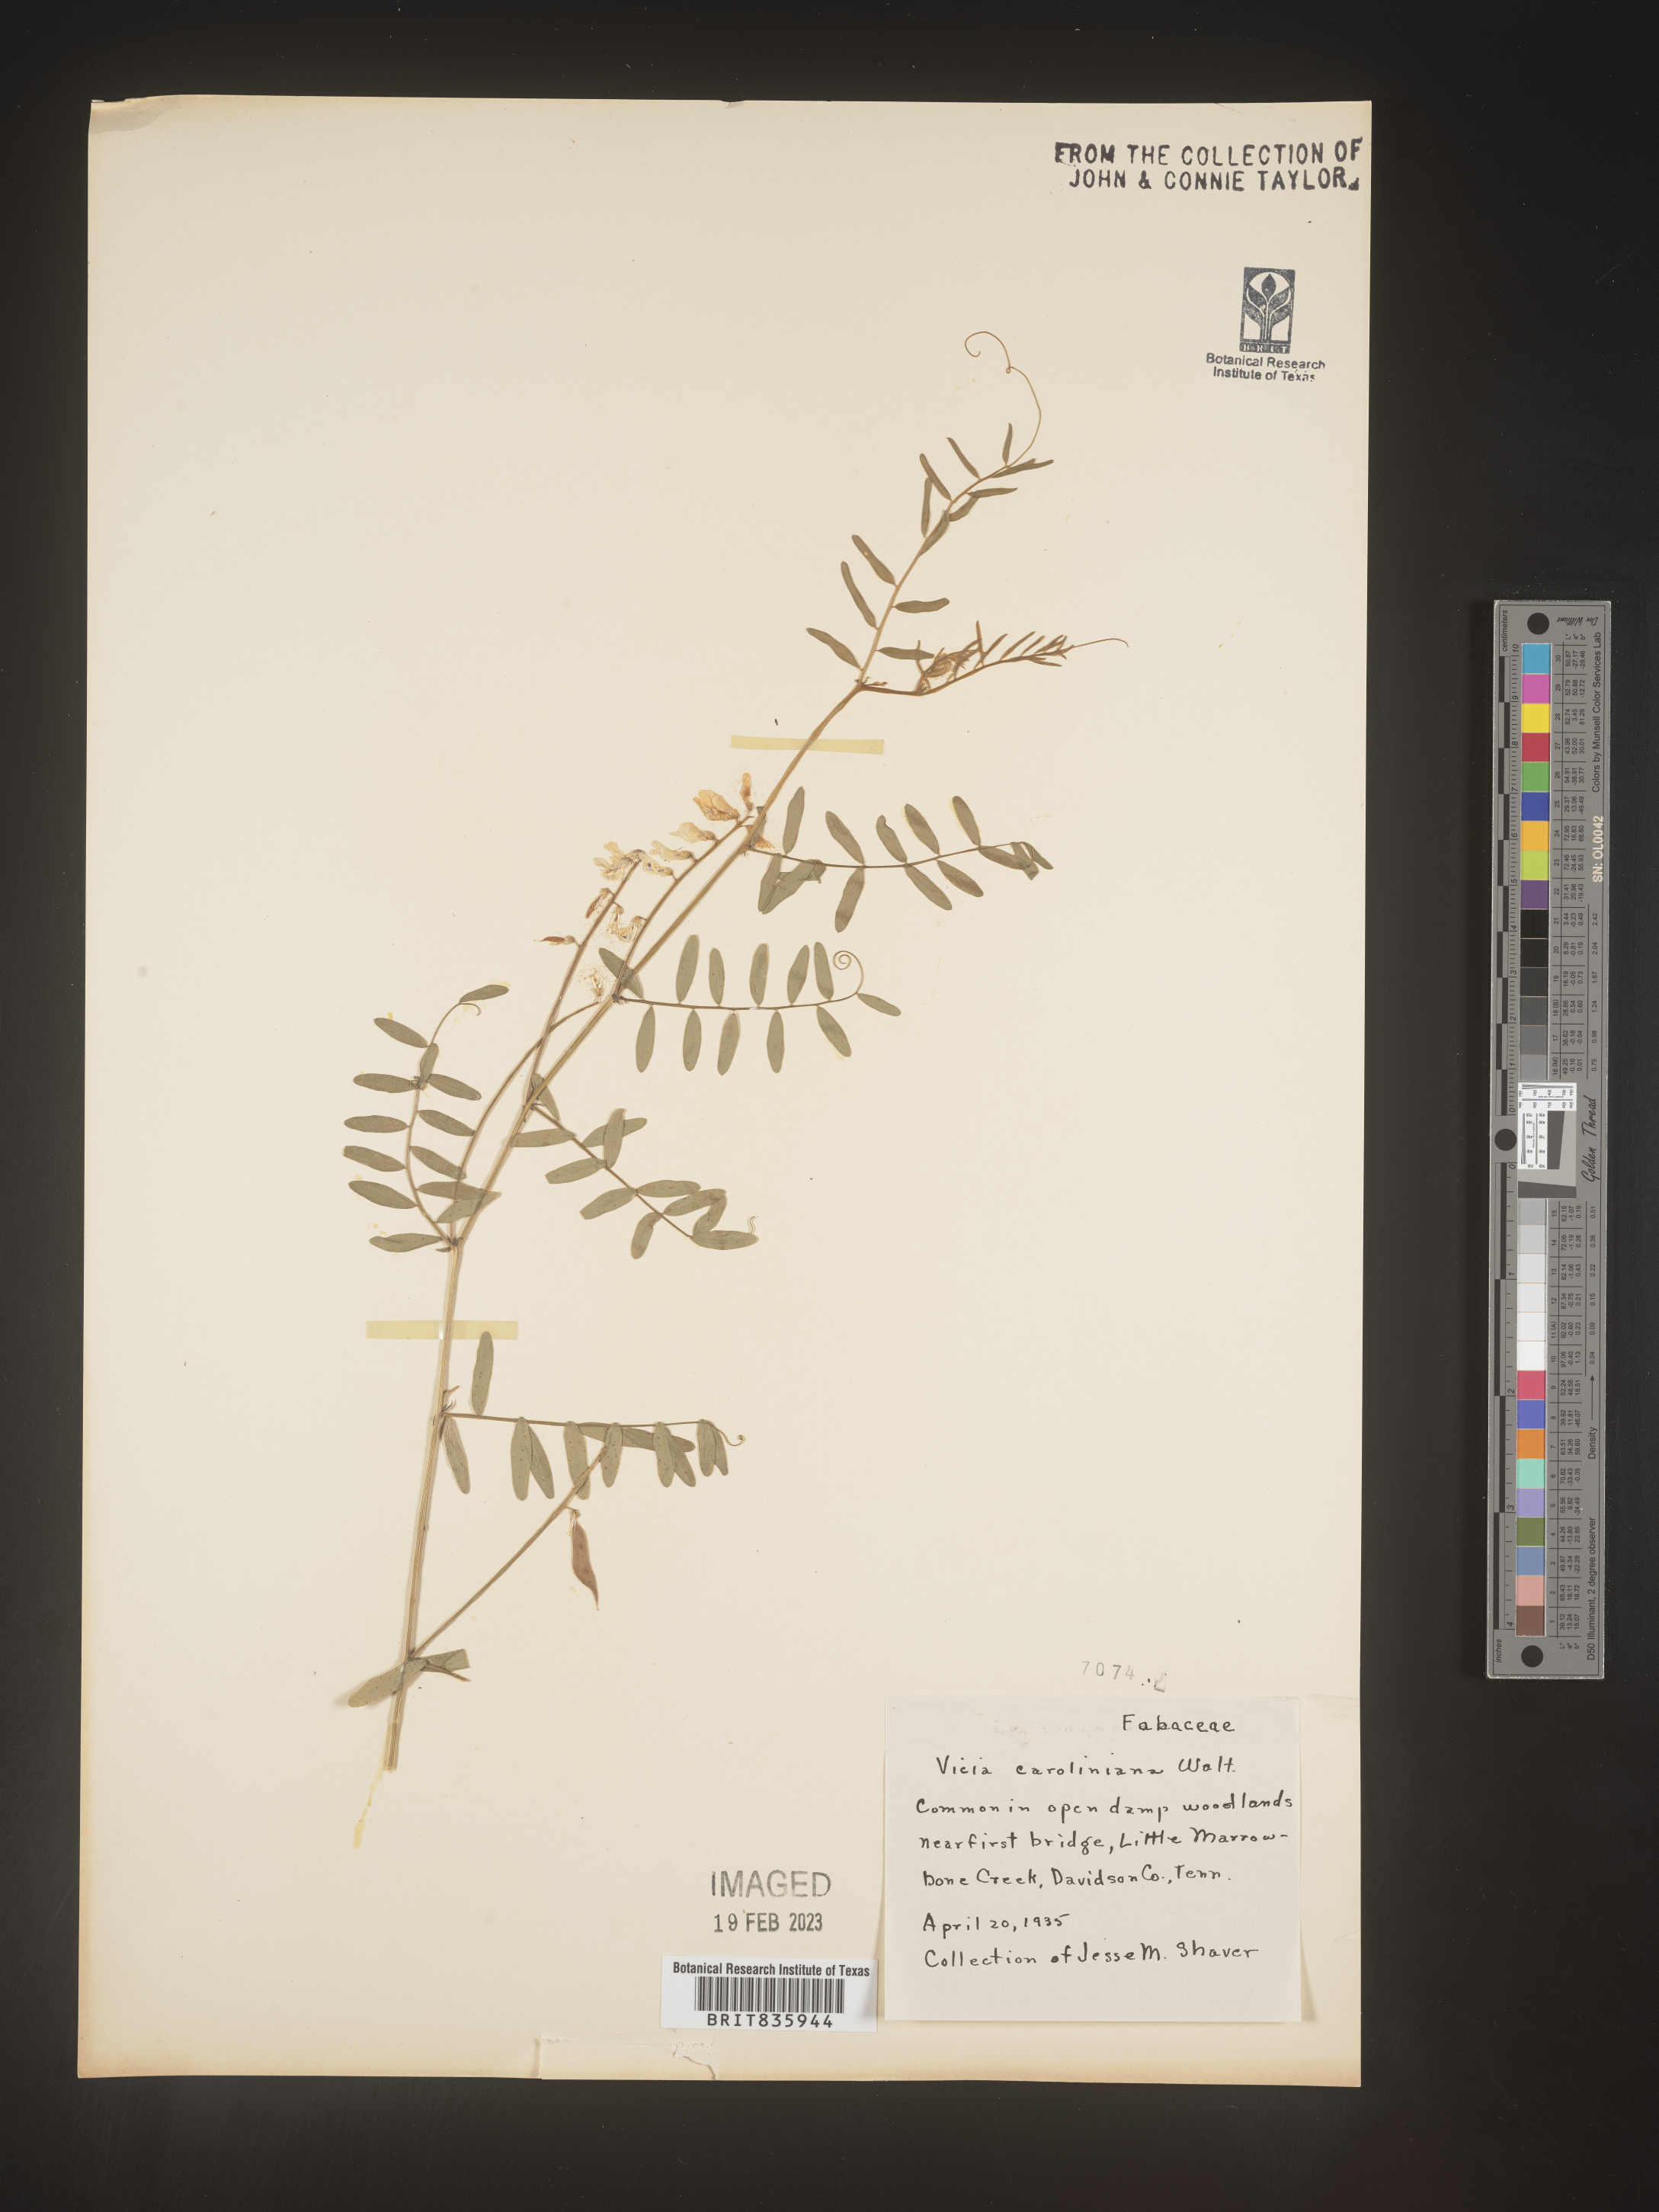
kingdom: Plantae
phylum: Tracheophyta
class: Magnoliopsida
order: Fabales
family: Fabaceae
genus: Vicia
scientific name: Vicia caroliniana
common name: Carolina vetch
